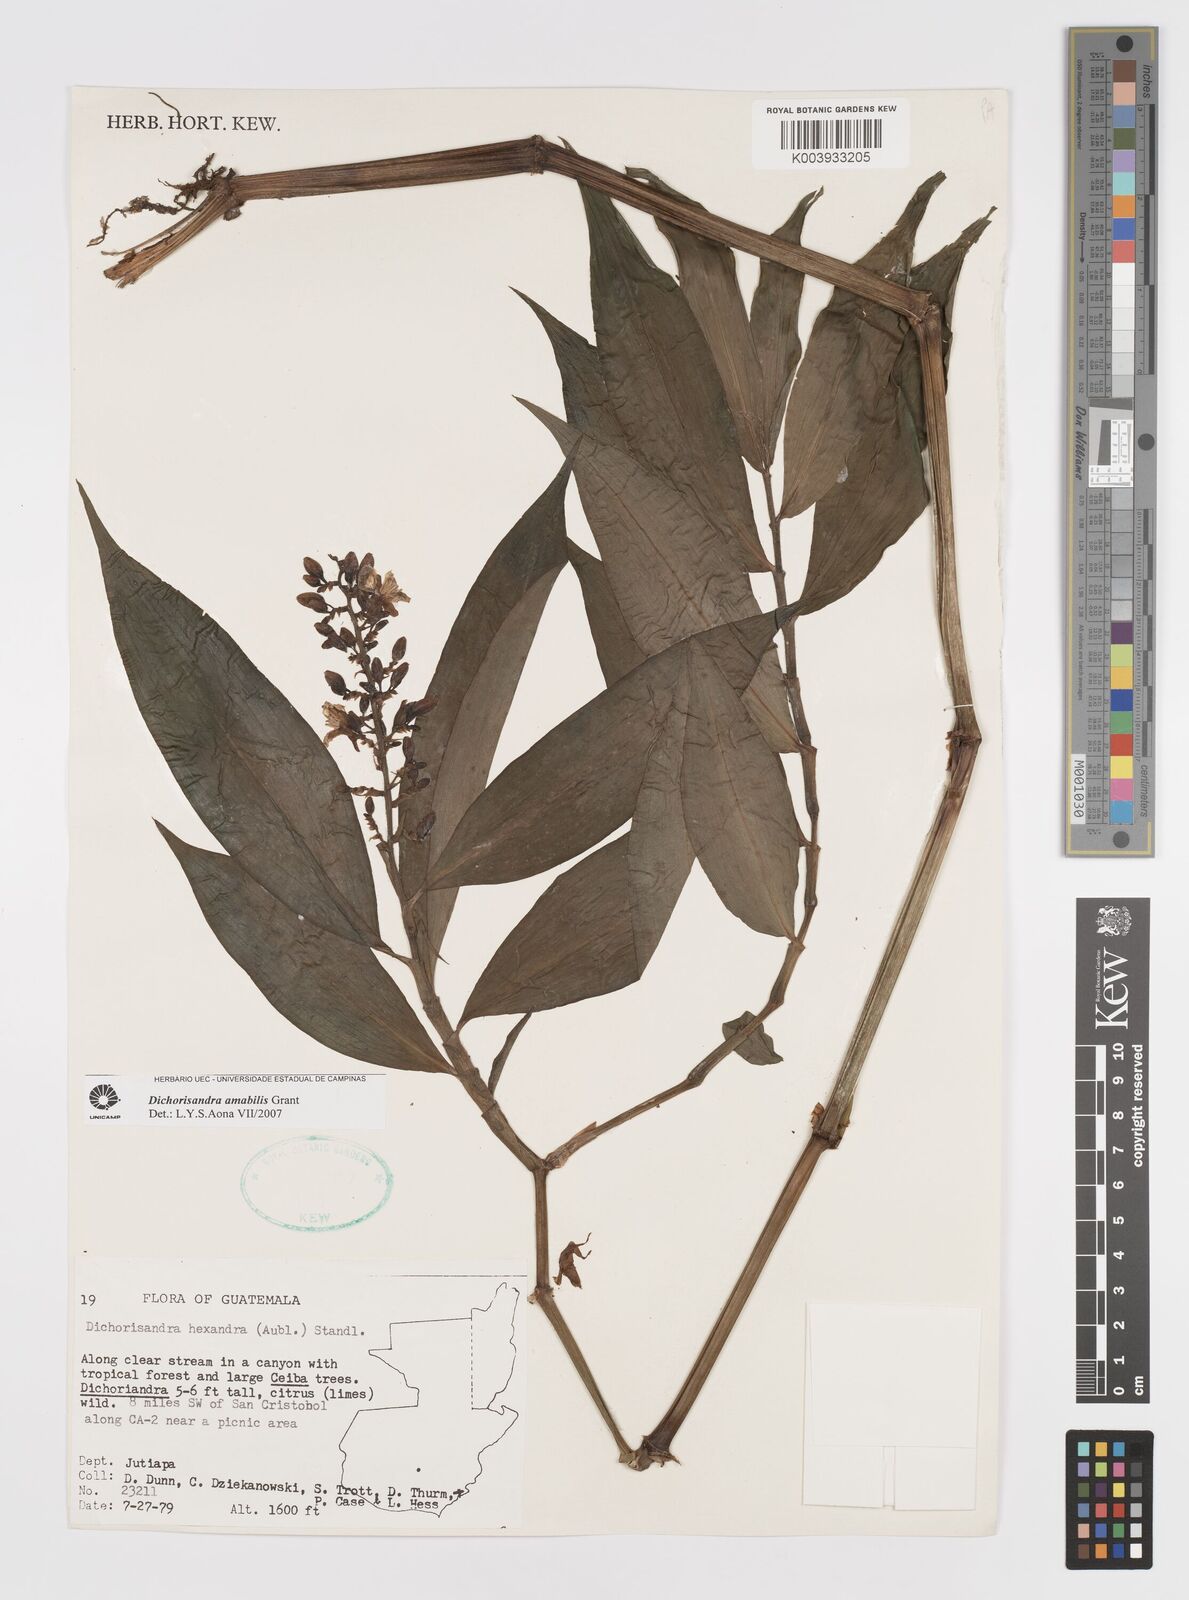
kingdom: Plantae
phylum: Tracheophyta
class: Liliopsida
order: Commelinales
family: Commelinaceae
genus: Dichorisandra
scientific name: Dichorisandra amabilis
